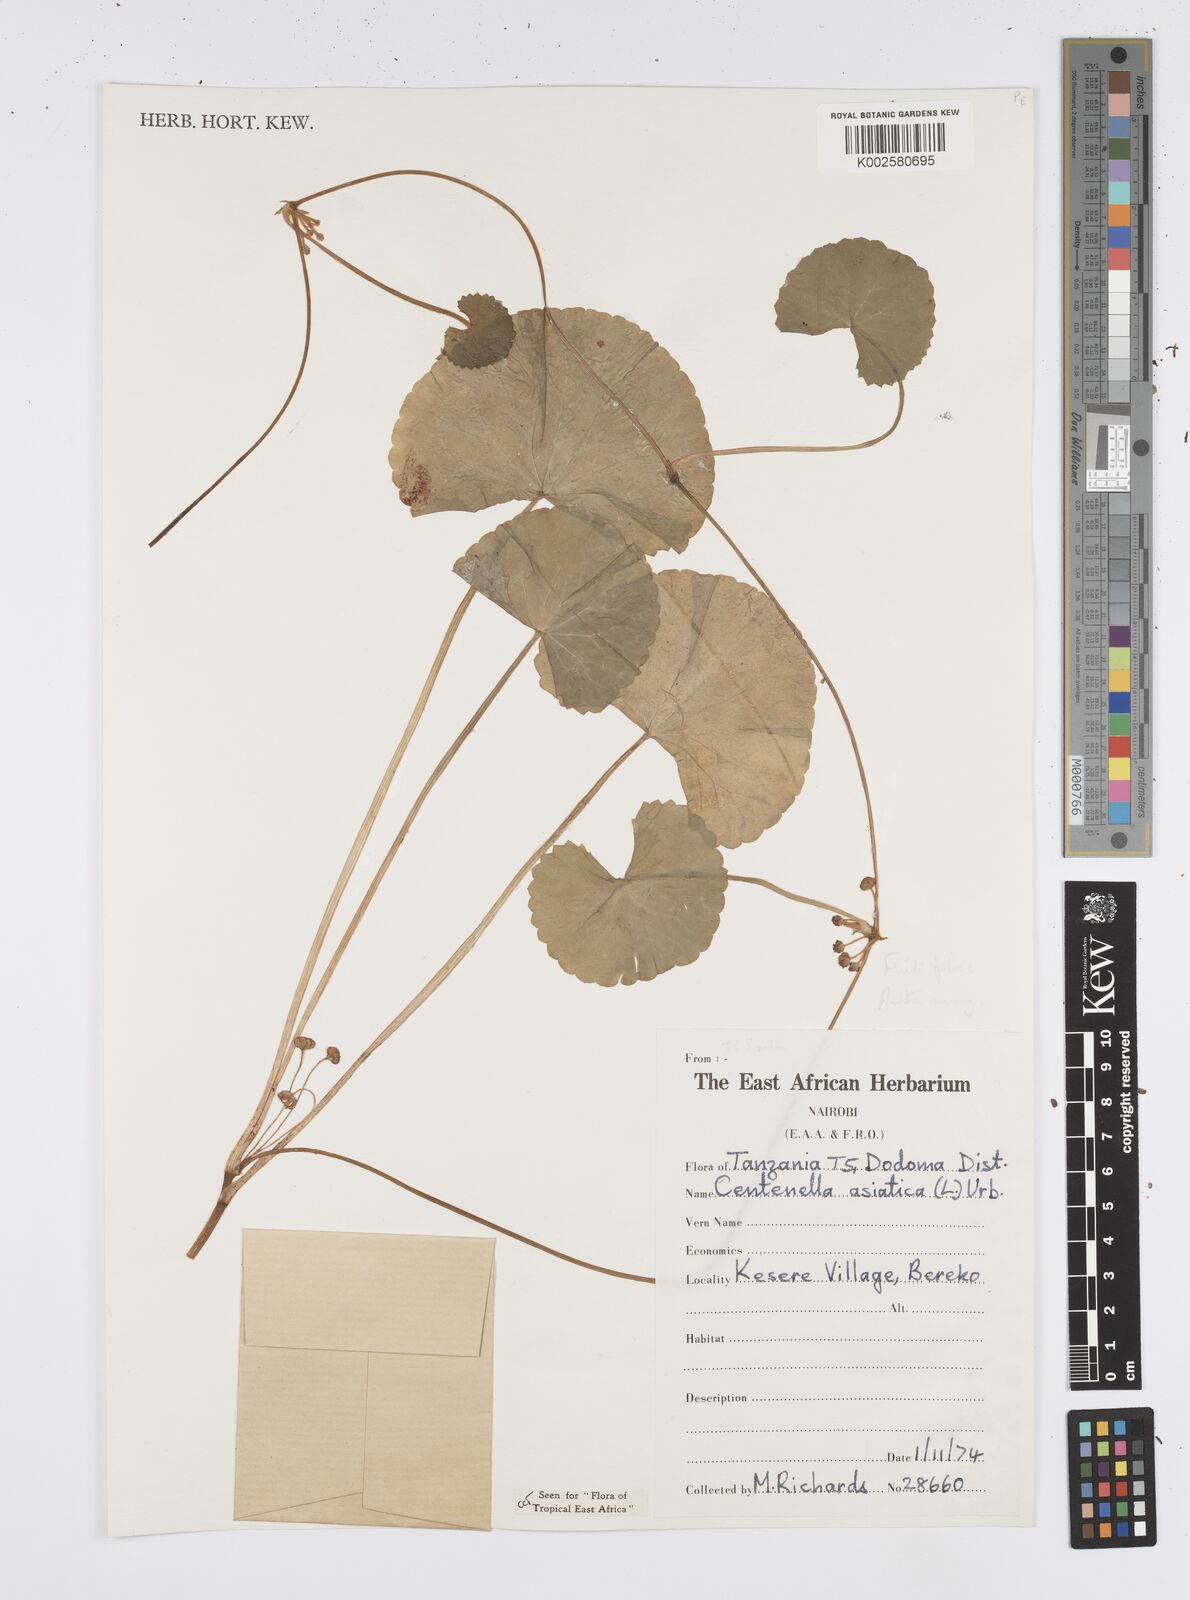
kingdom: Plantae
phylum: Tracheophyta
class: Magnoliopsida
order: Apiales
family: Apiaceae
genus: Centella
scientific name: Centella asiatica
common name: Spadeleaf
